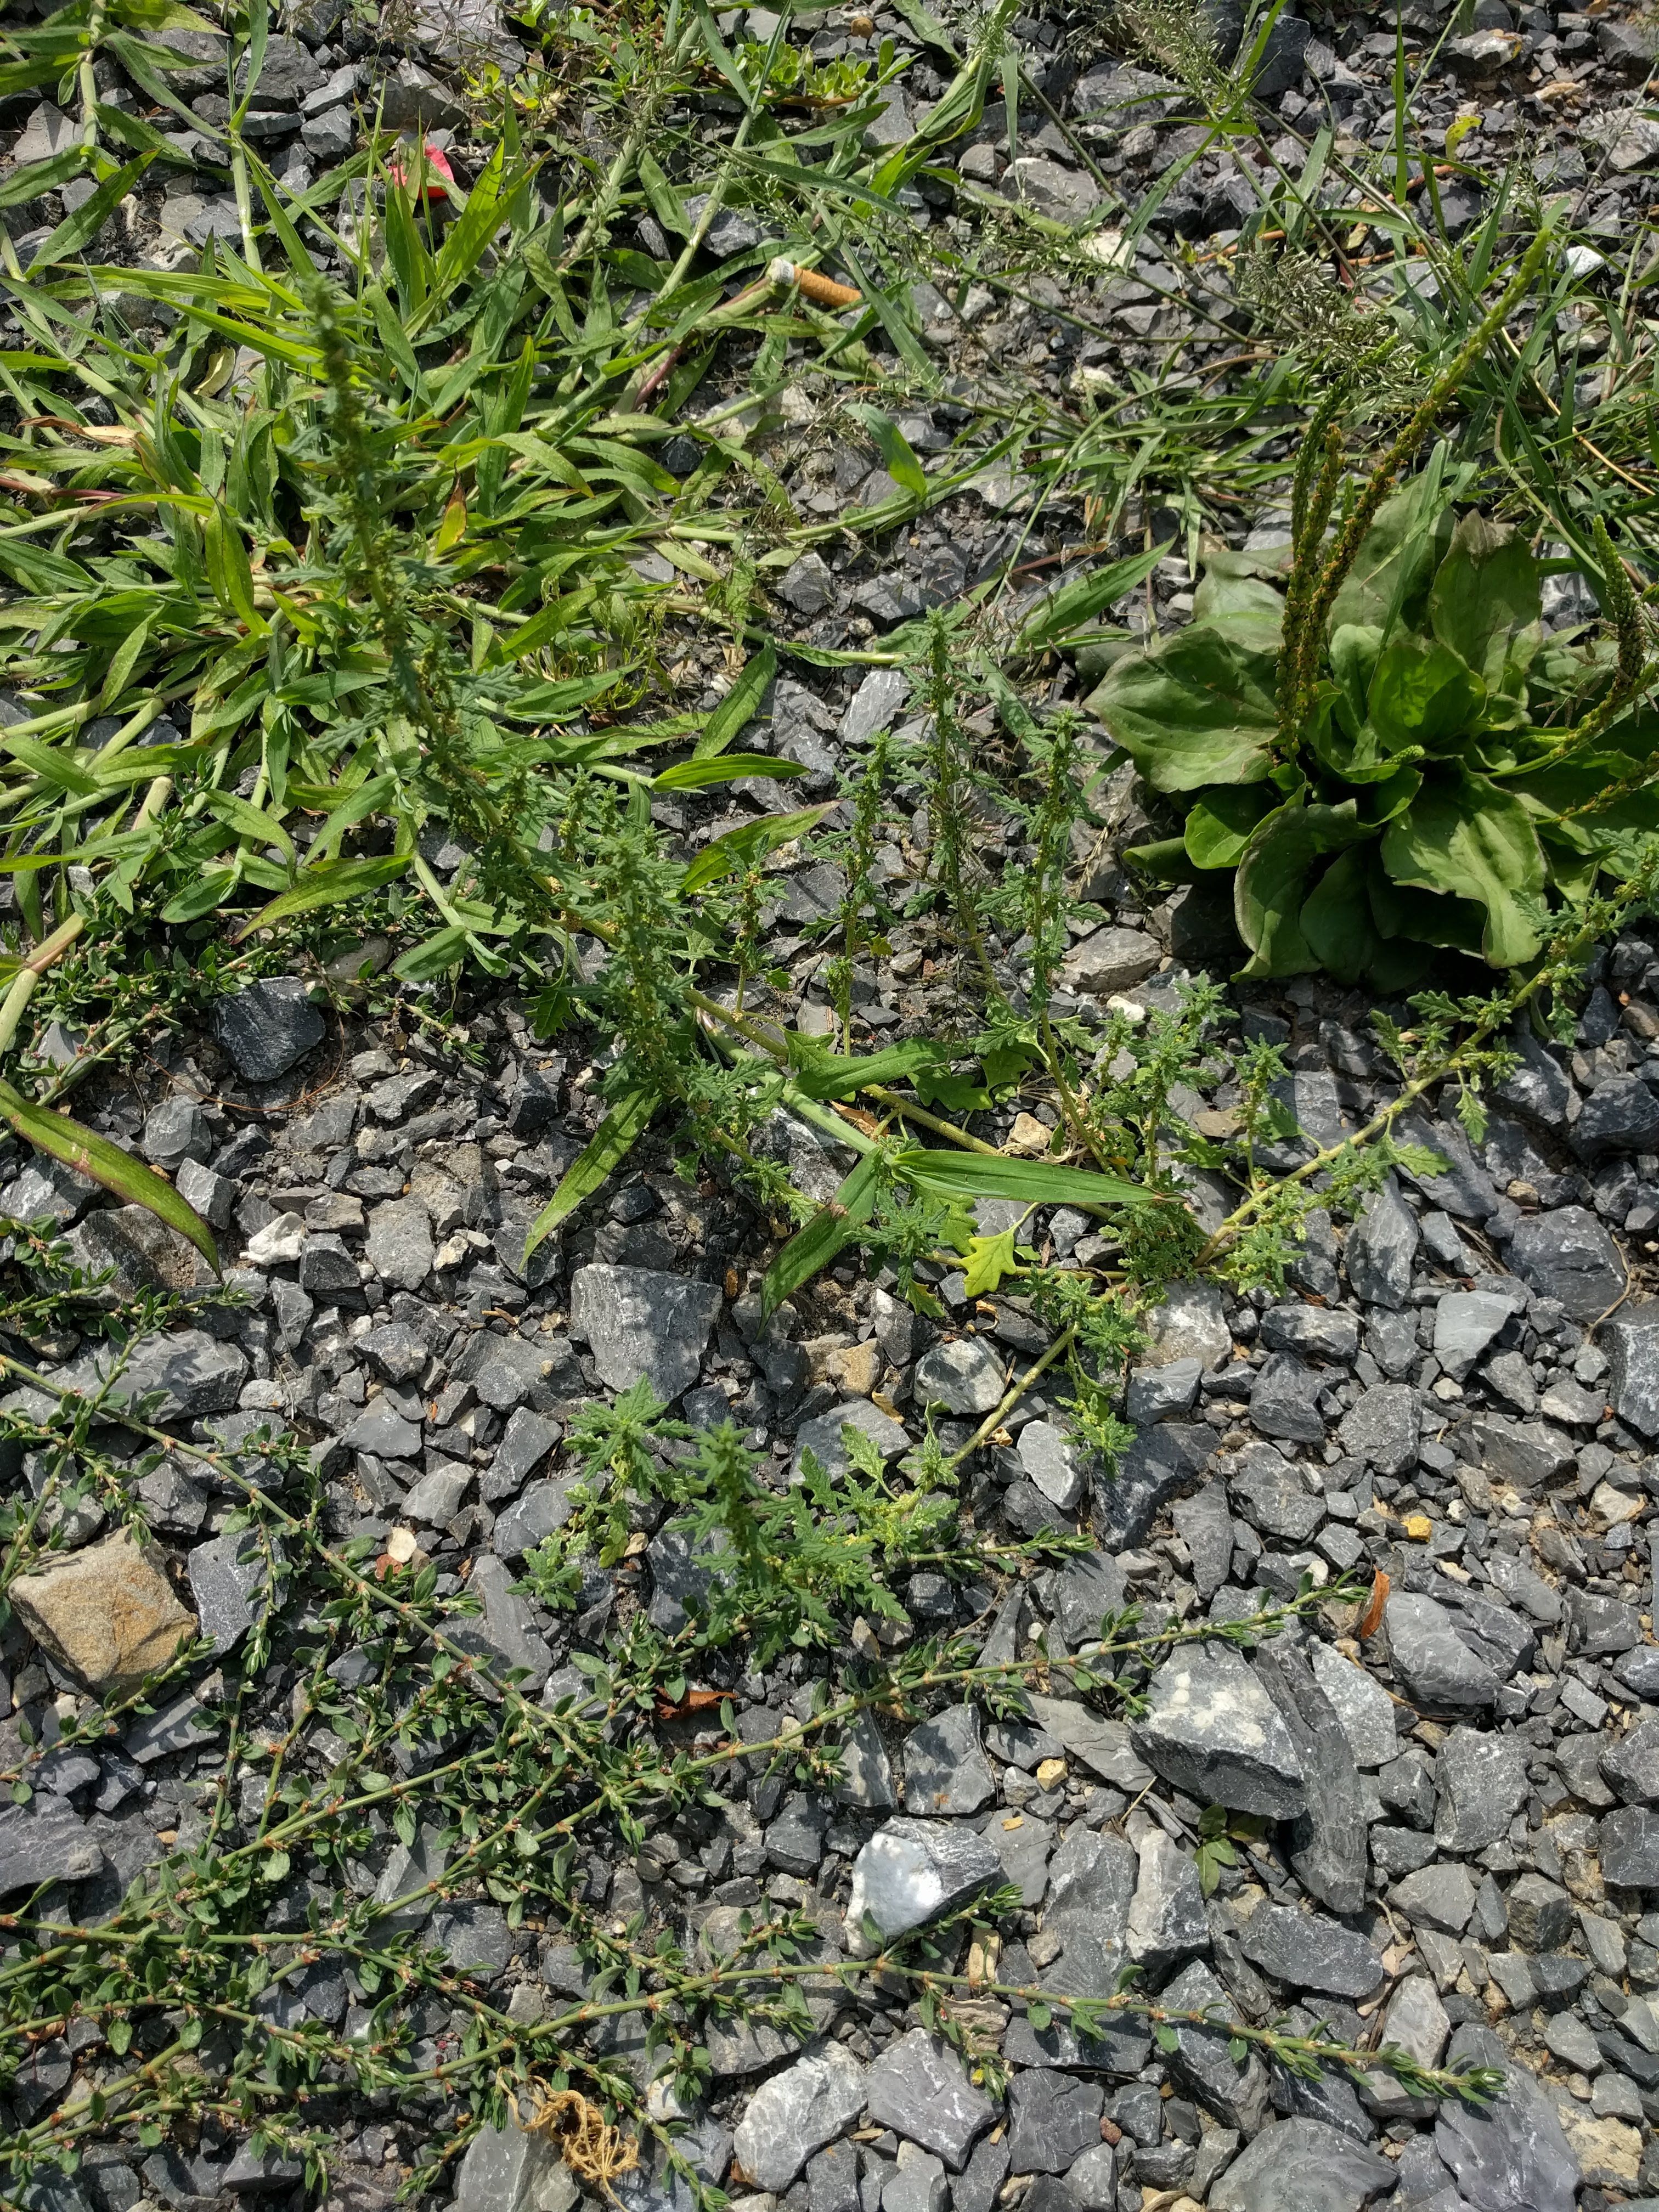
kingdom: Plantae
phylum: Tracheophyta
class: Magnoliopsida
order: Caryophyllales
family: Amaranthaceae
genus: Dysphania
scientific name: Dysphania pumilio
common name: Clammy goosefoot
